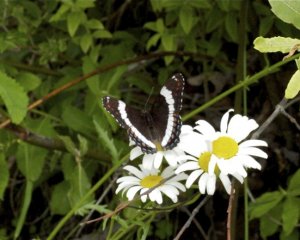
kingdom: Animalia
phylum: Arthropoda
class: Insecta
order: Lepidoptera
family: Nymphalidae
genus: Limenitis
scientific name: Limenitis arthemis
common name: Red-spotted Admiral
